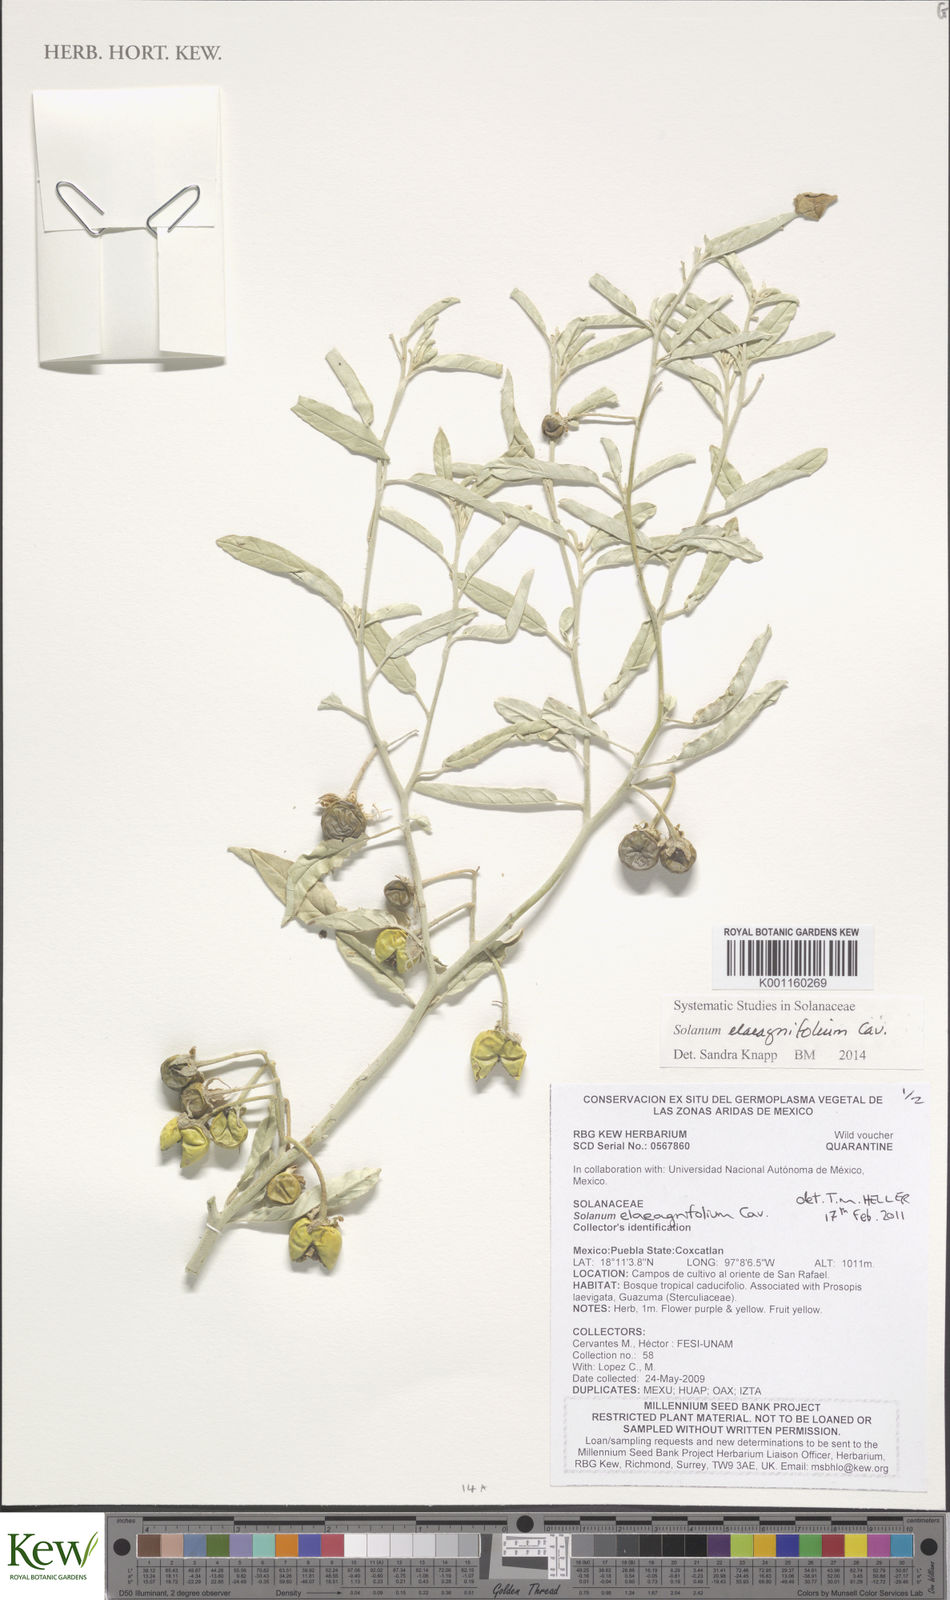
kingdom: Plantae
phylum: Tracheophyta
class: Magnoliopsida
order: Solanales
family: Solanaceae
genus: Solanum
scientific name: Solanum elaeagnifolium
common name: Silverleaf nightshade
